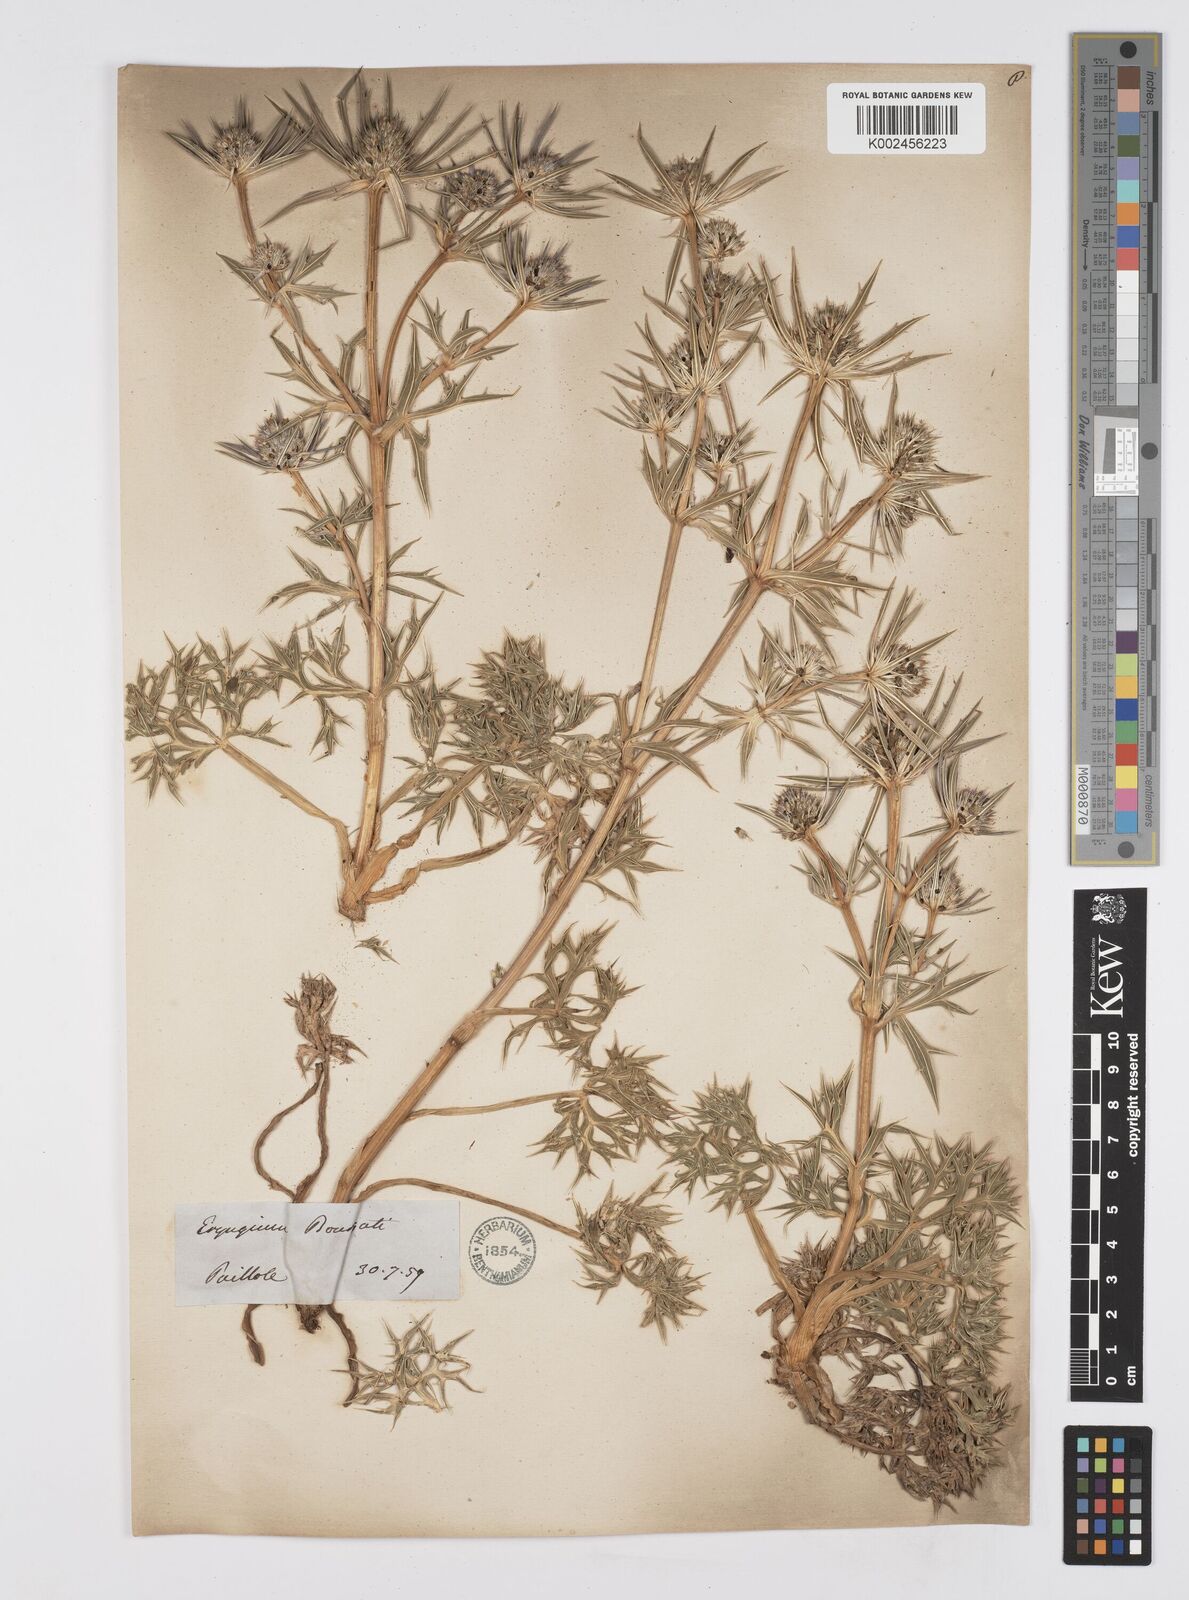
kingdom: Plantae
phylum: Tracheophyta
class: Magnoliopsida
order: Apiales
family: Apiaceae
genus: Eryngium
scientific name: Eryngium bourgatii
